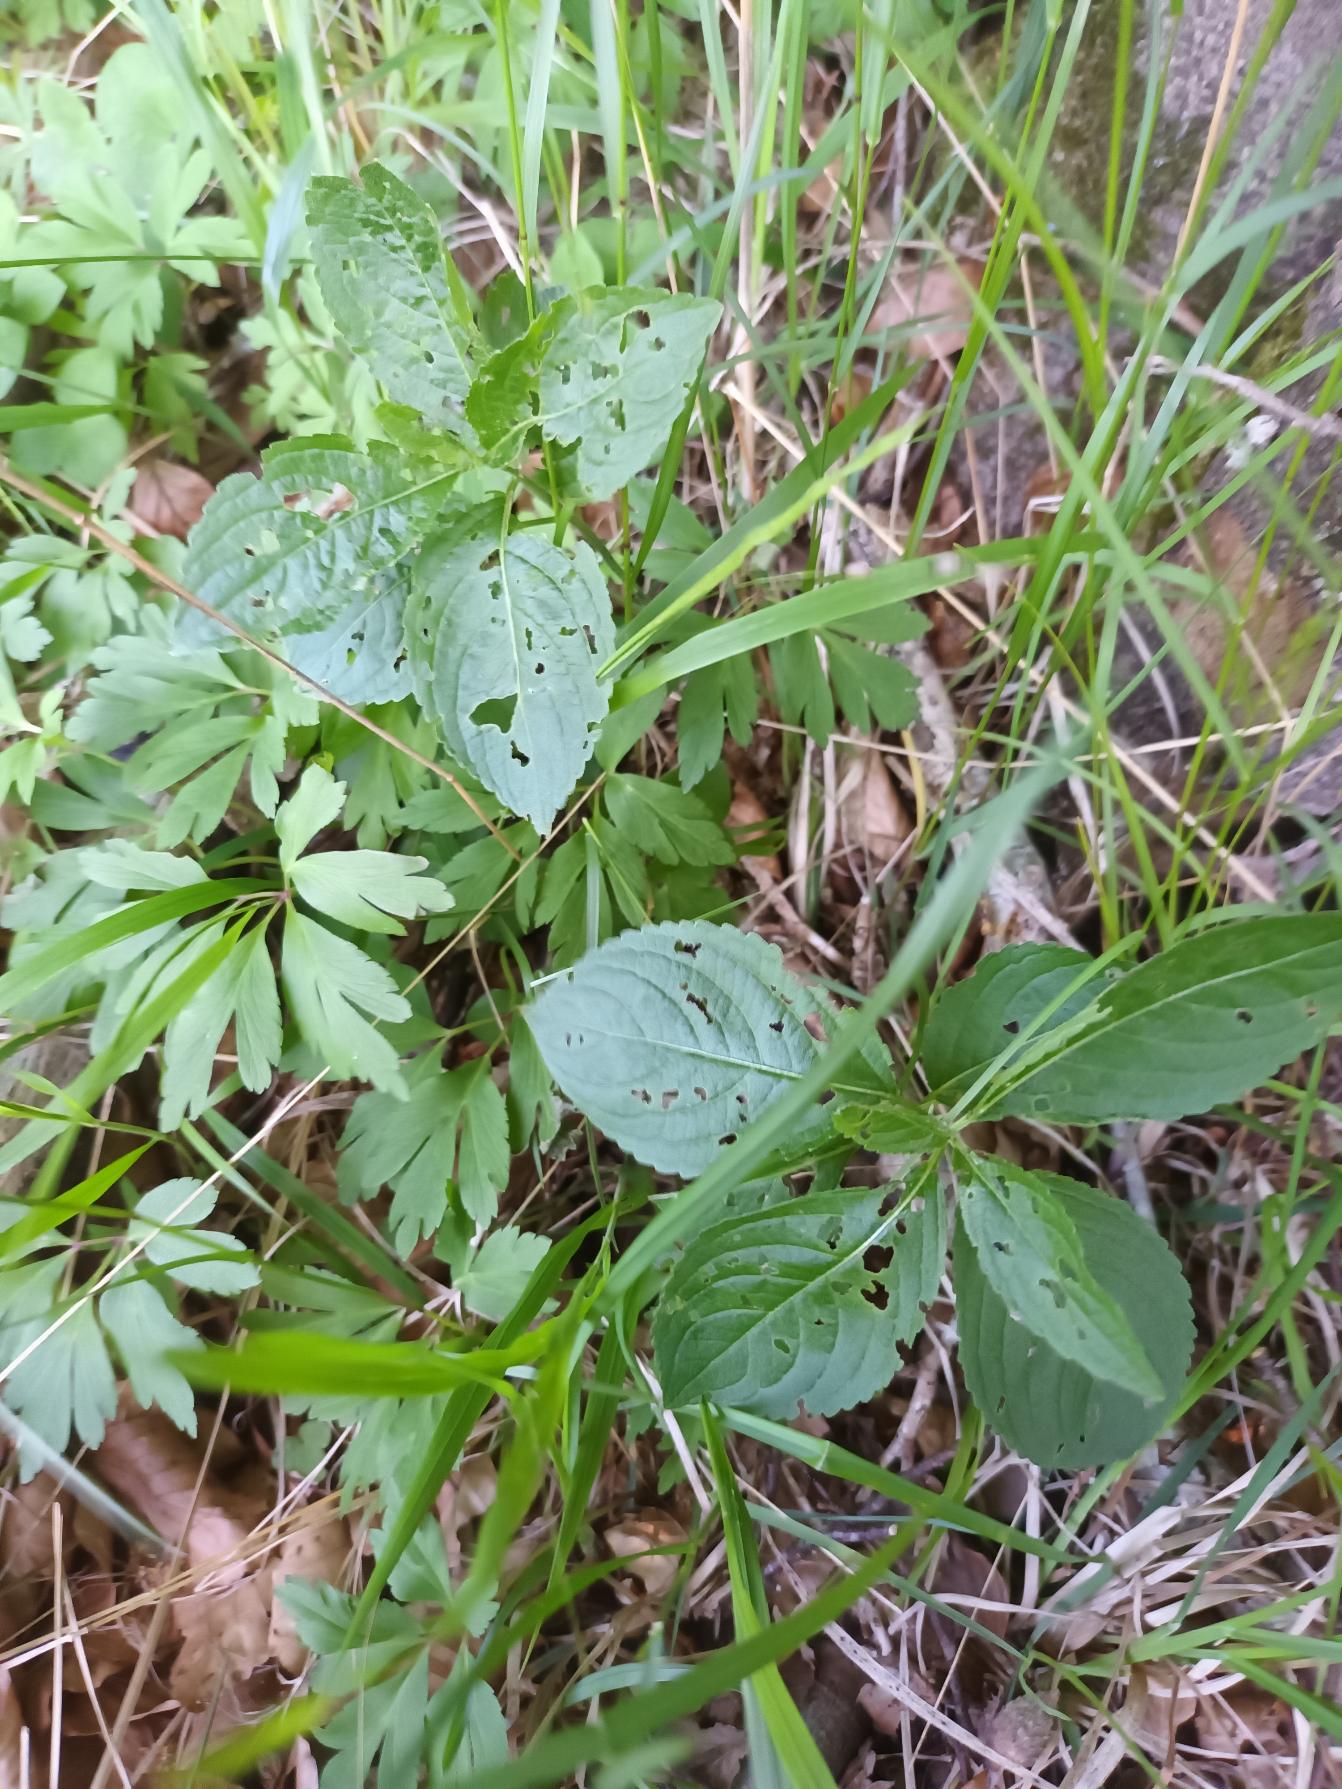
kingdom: Plantae
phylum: Tracheophyta
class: Magnoliopsida
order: Malpighiales
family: Euphorbiaceae
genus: Mercurialis
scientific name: Mercurialis perennis
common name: Almindelig bingelurt
